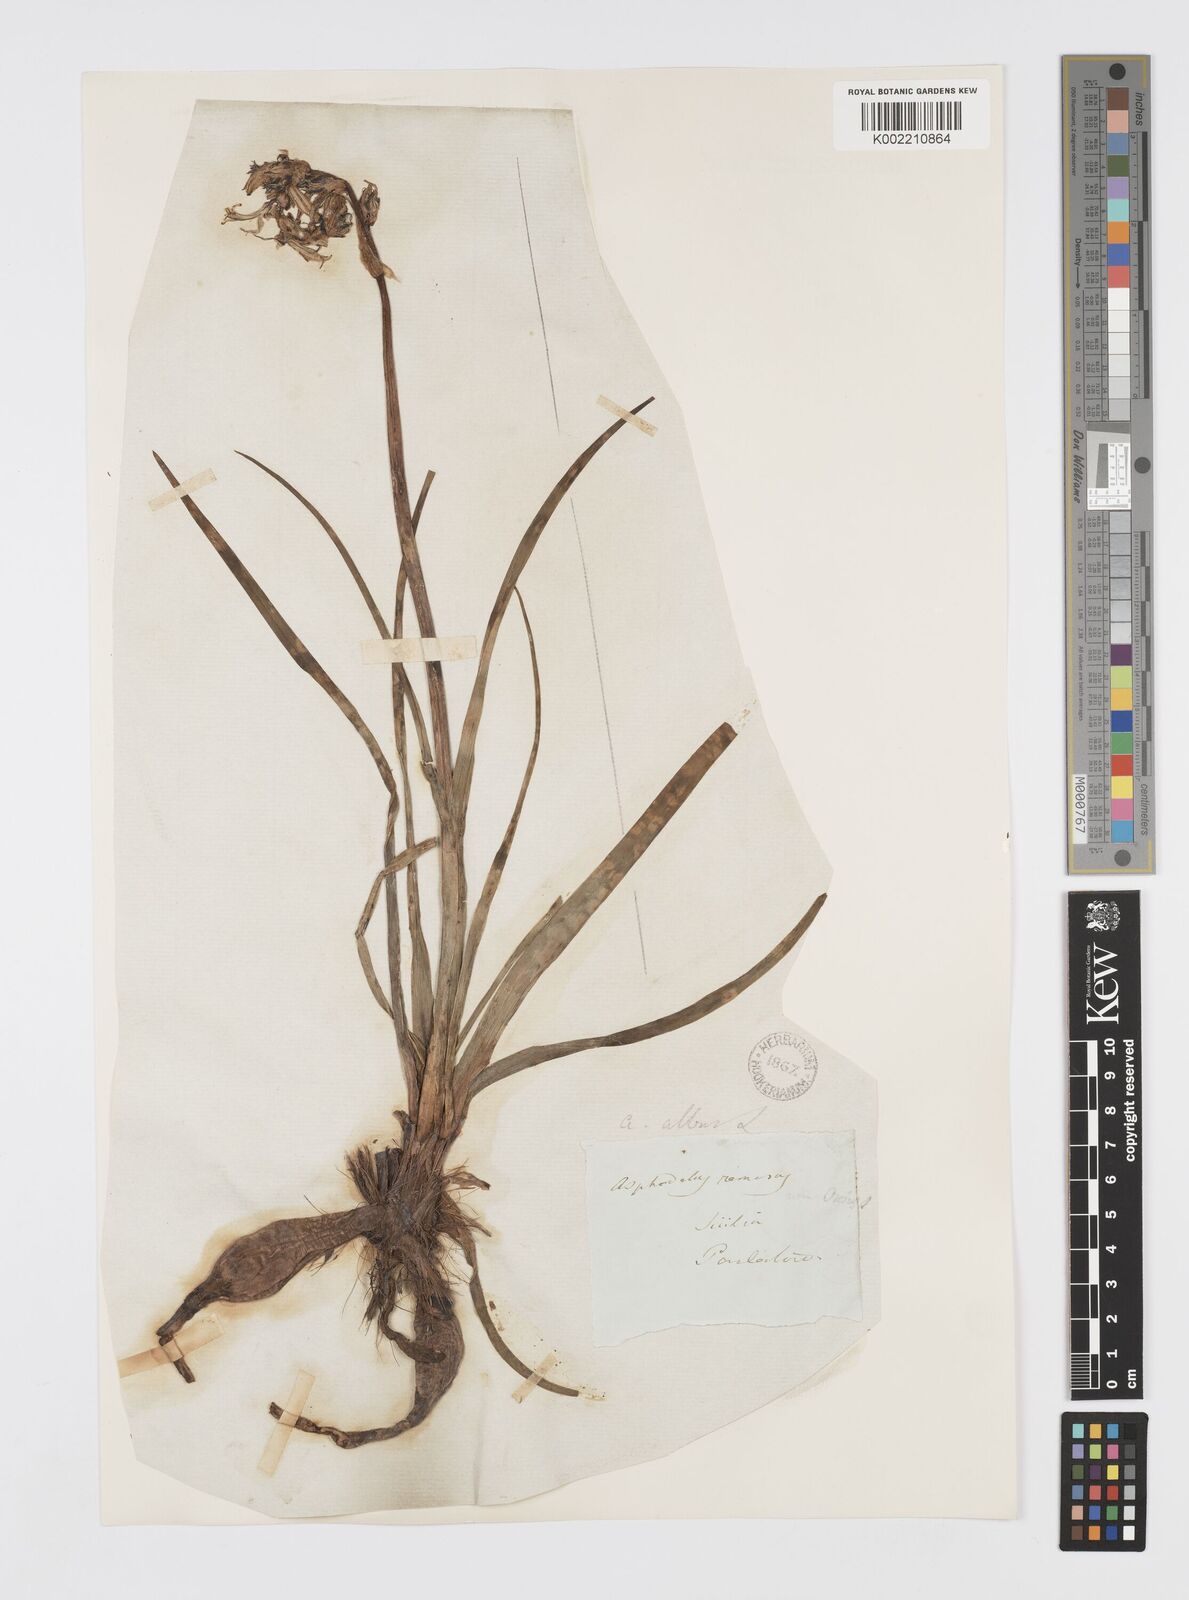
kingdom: Plantae
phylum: Tracheophyta
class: Liliopsida
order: Asparagales
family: Asphodelaceae
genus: Asphodelus
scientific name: Asphodelus albus
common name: White asphodel
